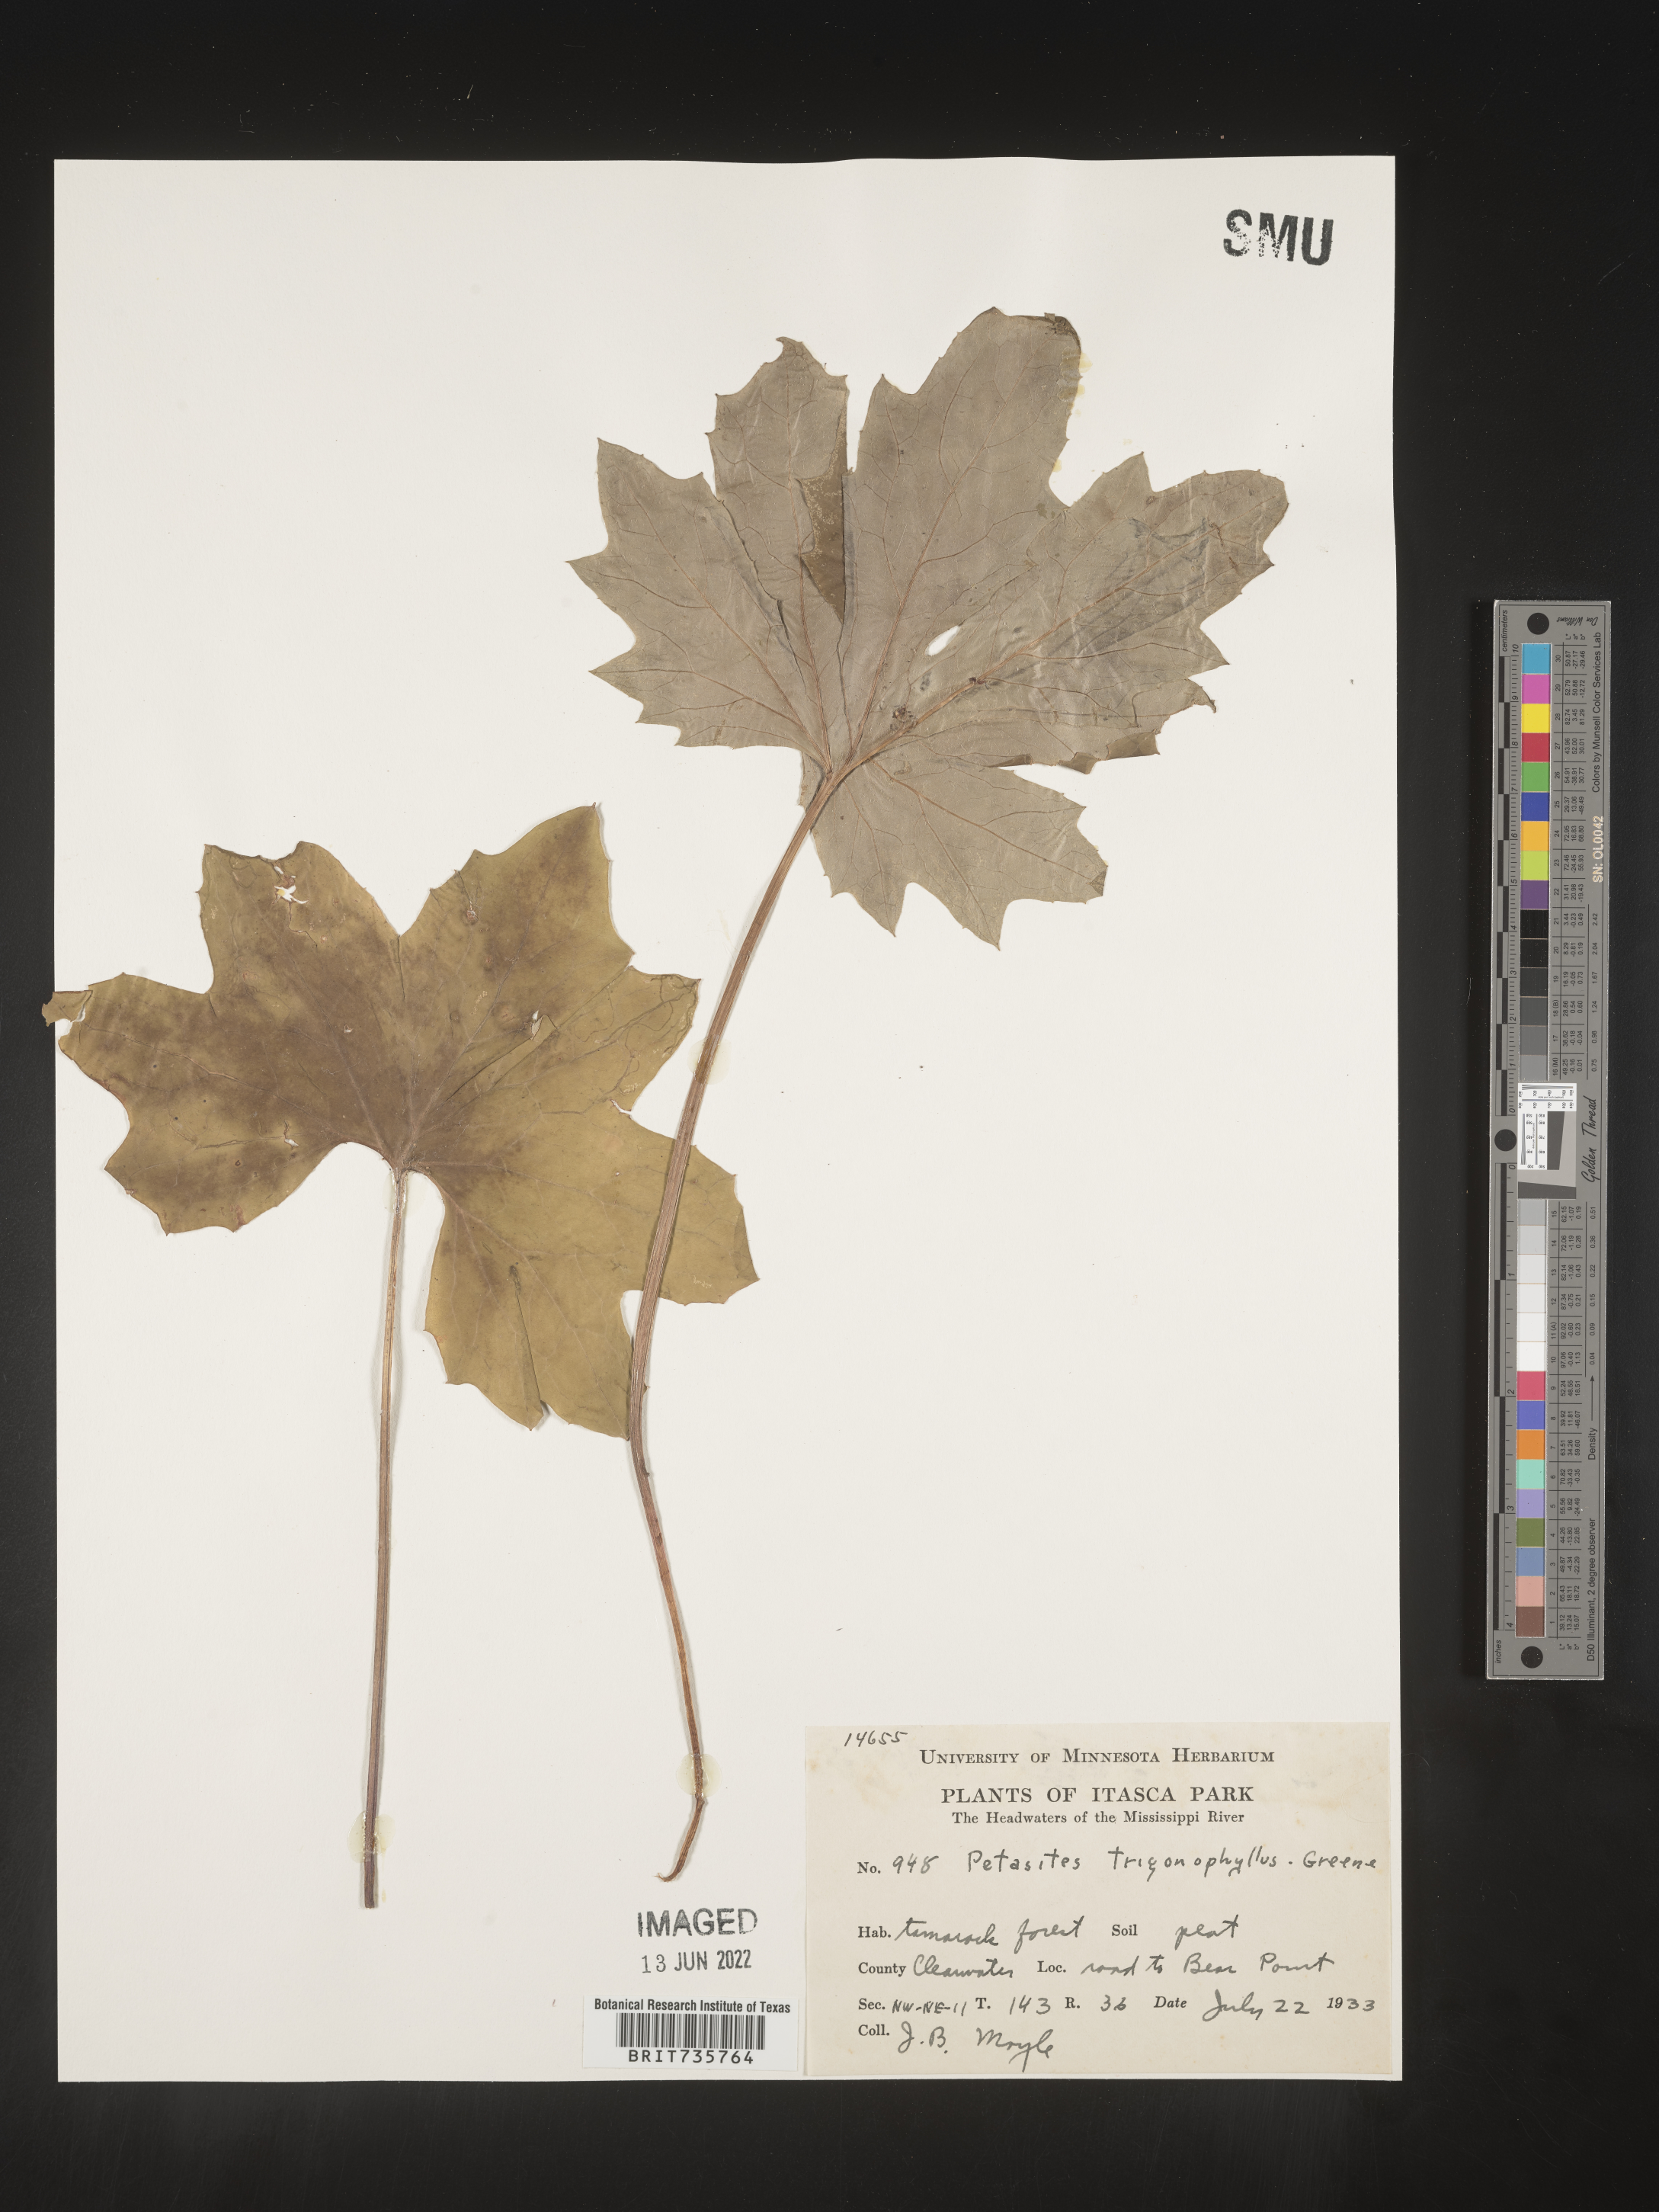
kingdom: Plantae
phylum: Tracheophyta
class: Magnoliopsida
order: Asterales
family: Asteraceae
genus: Petasites
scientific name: Petasites
